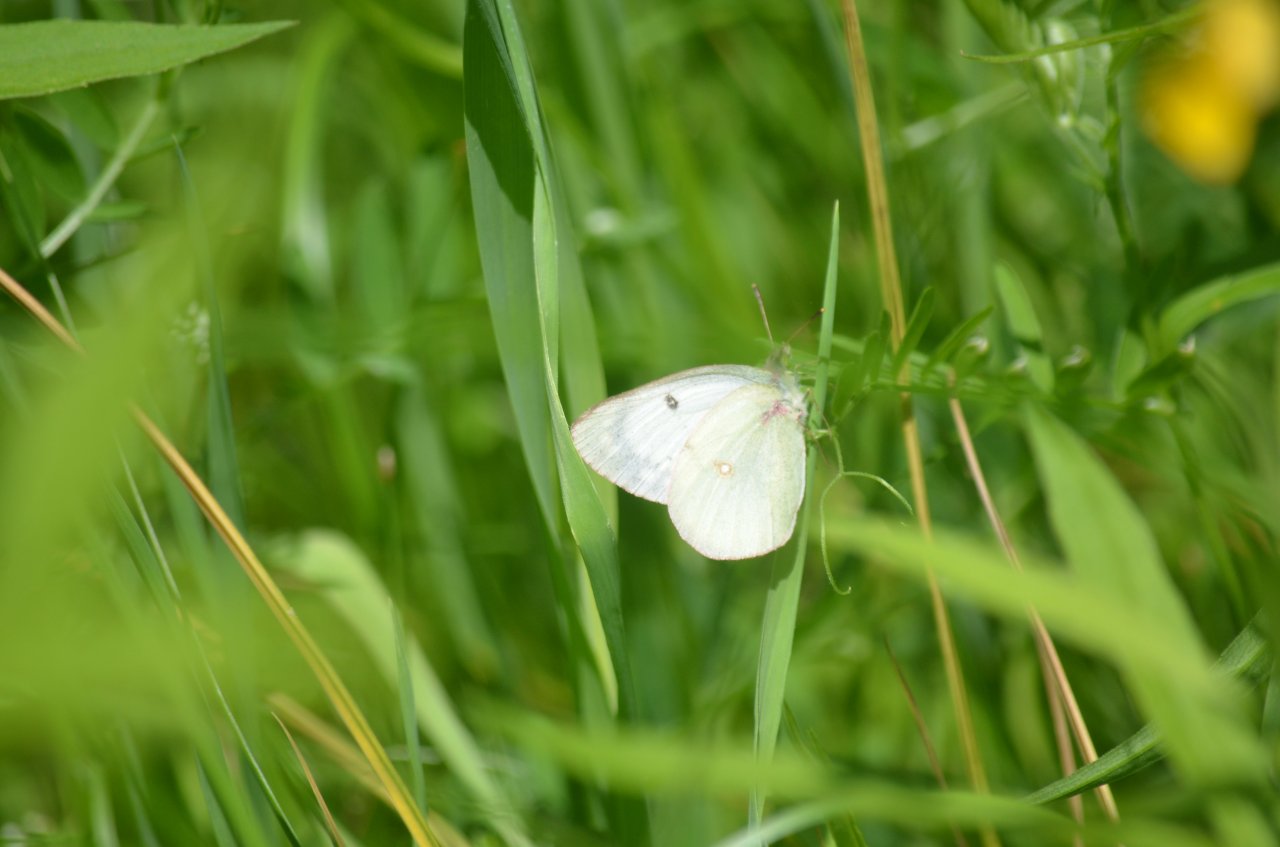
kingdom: Animalia
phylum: Arthropoda
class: Insecta
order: Lepidoptera
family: Pieridae
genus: Colias
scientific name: Colias philodice
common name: Clouded Sulphur
